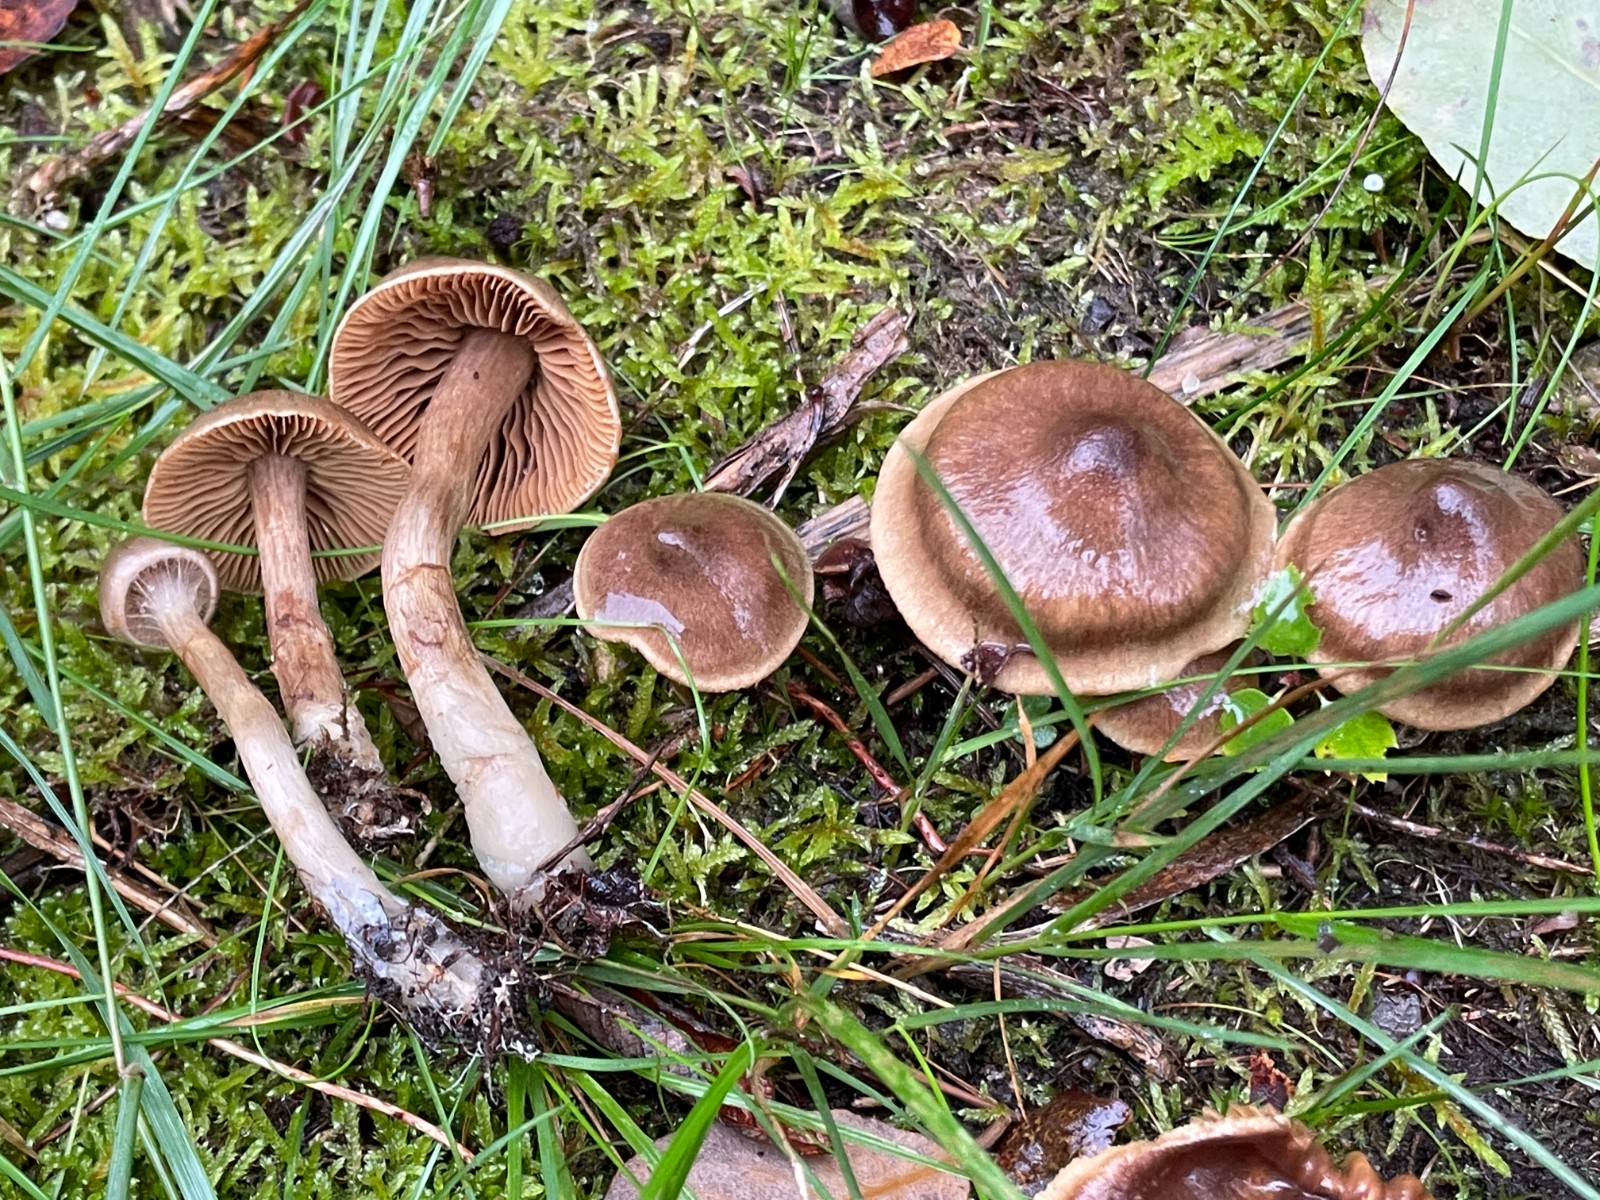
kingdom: Fungi
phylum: Basidiomycota
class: Agaricomycetes
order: Agaricales
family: Cortinariaceae
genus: Cortinarius
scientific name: Cortinarius raphanoides
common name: ræddike-slørhat
